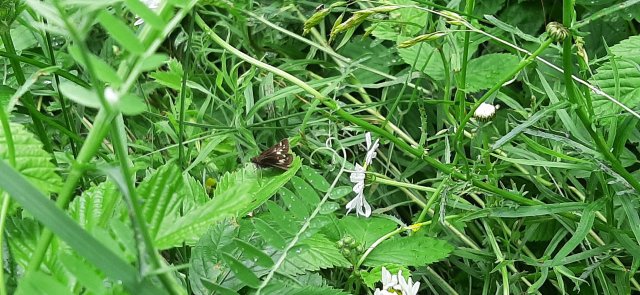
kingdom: Animalia
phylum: Arthropoda
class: Insecta
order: Lepidoptera
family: Hesperiidae
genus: Vernia
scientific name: Vernia verna
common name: Little Glassywing
